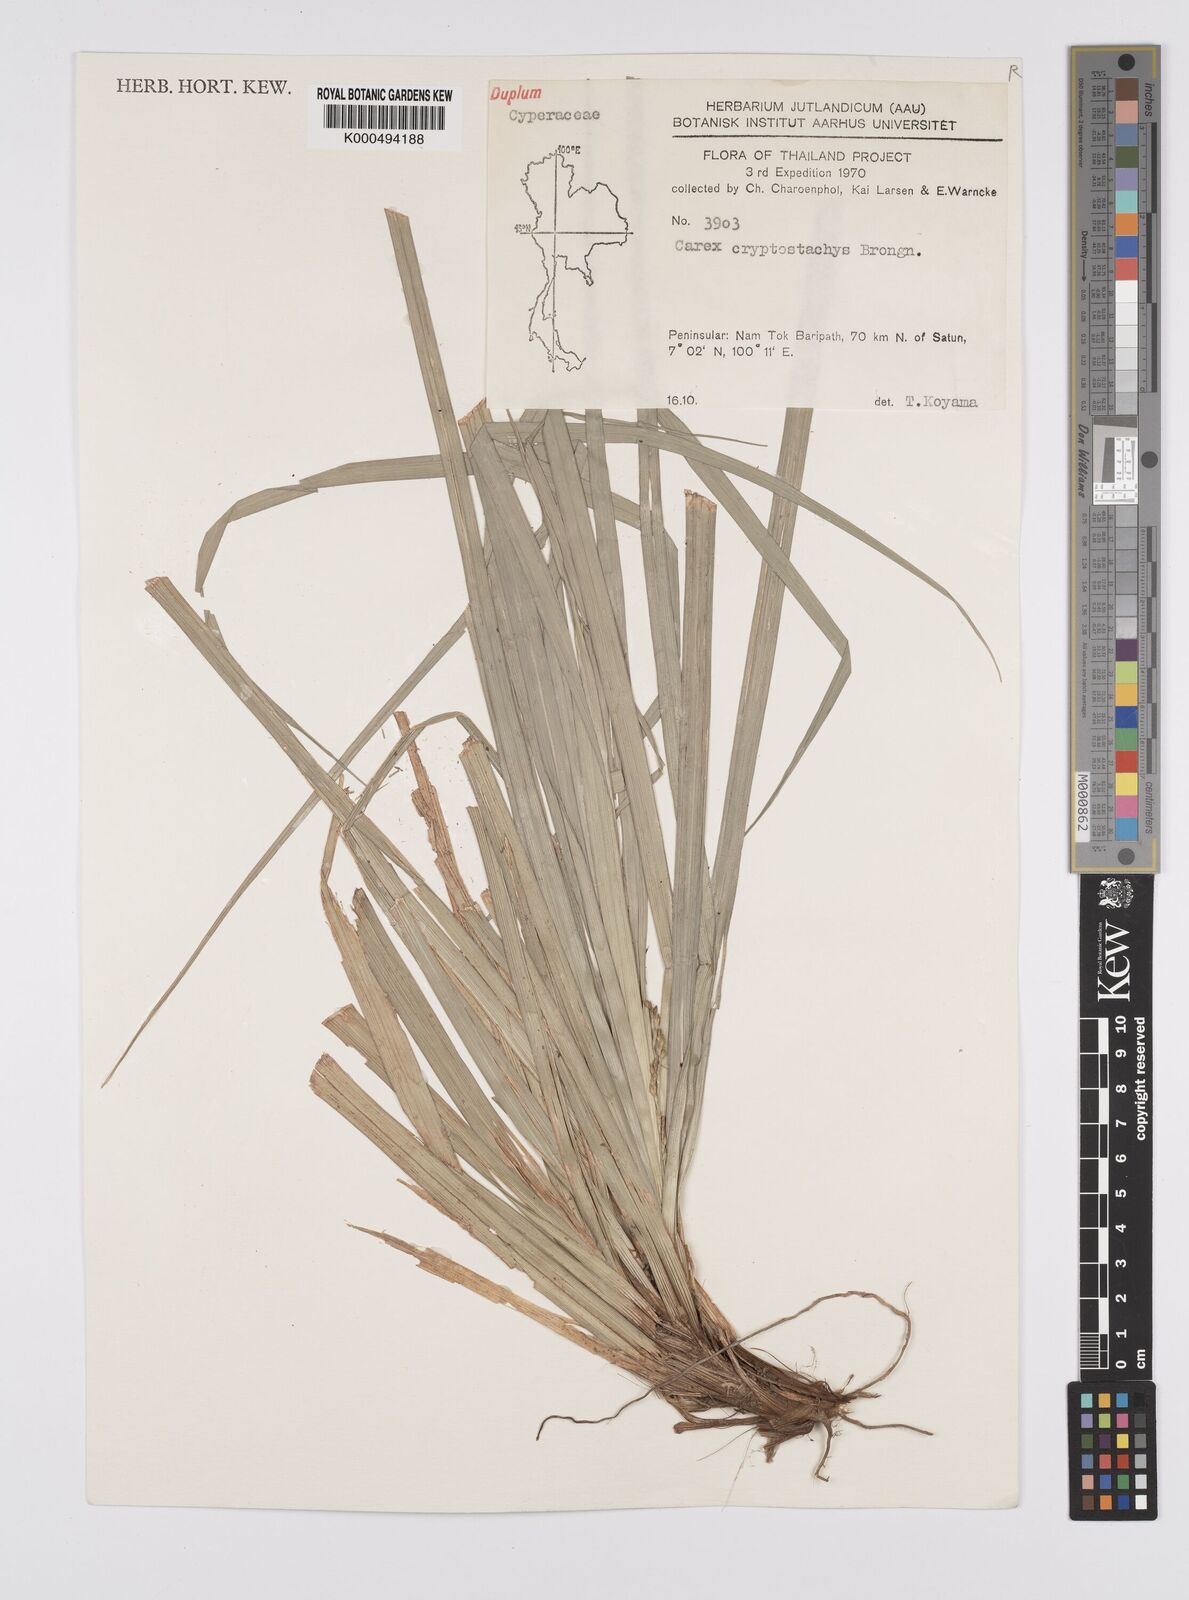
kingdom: Plantae
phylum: Tracheophyta
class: Liliopsida
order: Poales
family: Cyperaceae
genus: Carex
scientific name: Carex cryptostachys
